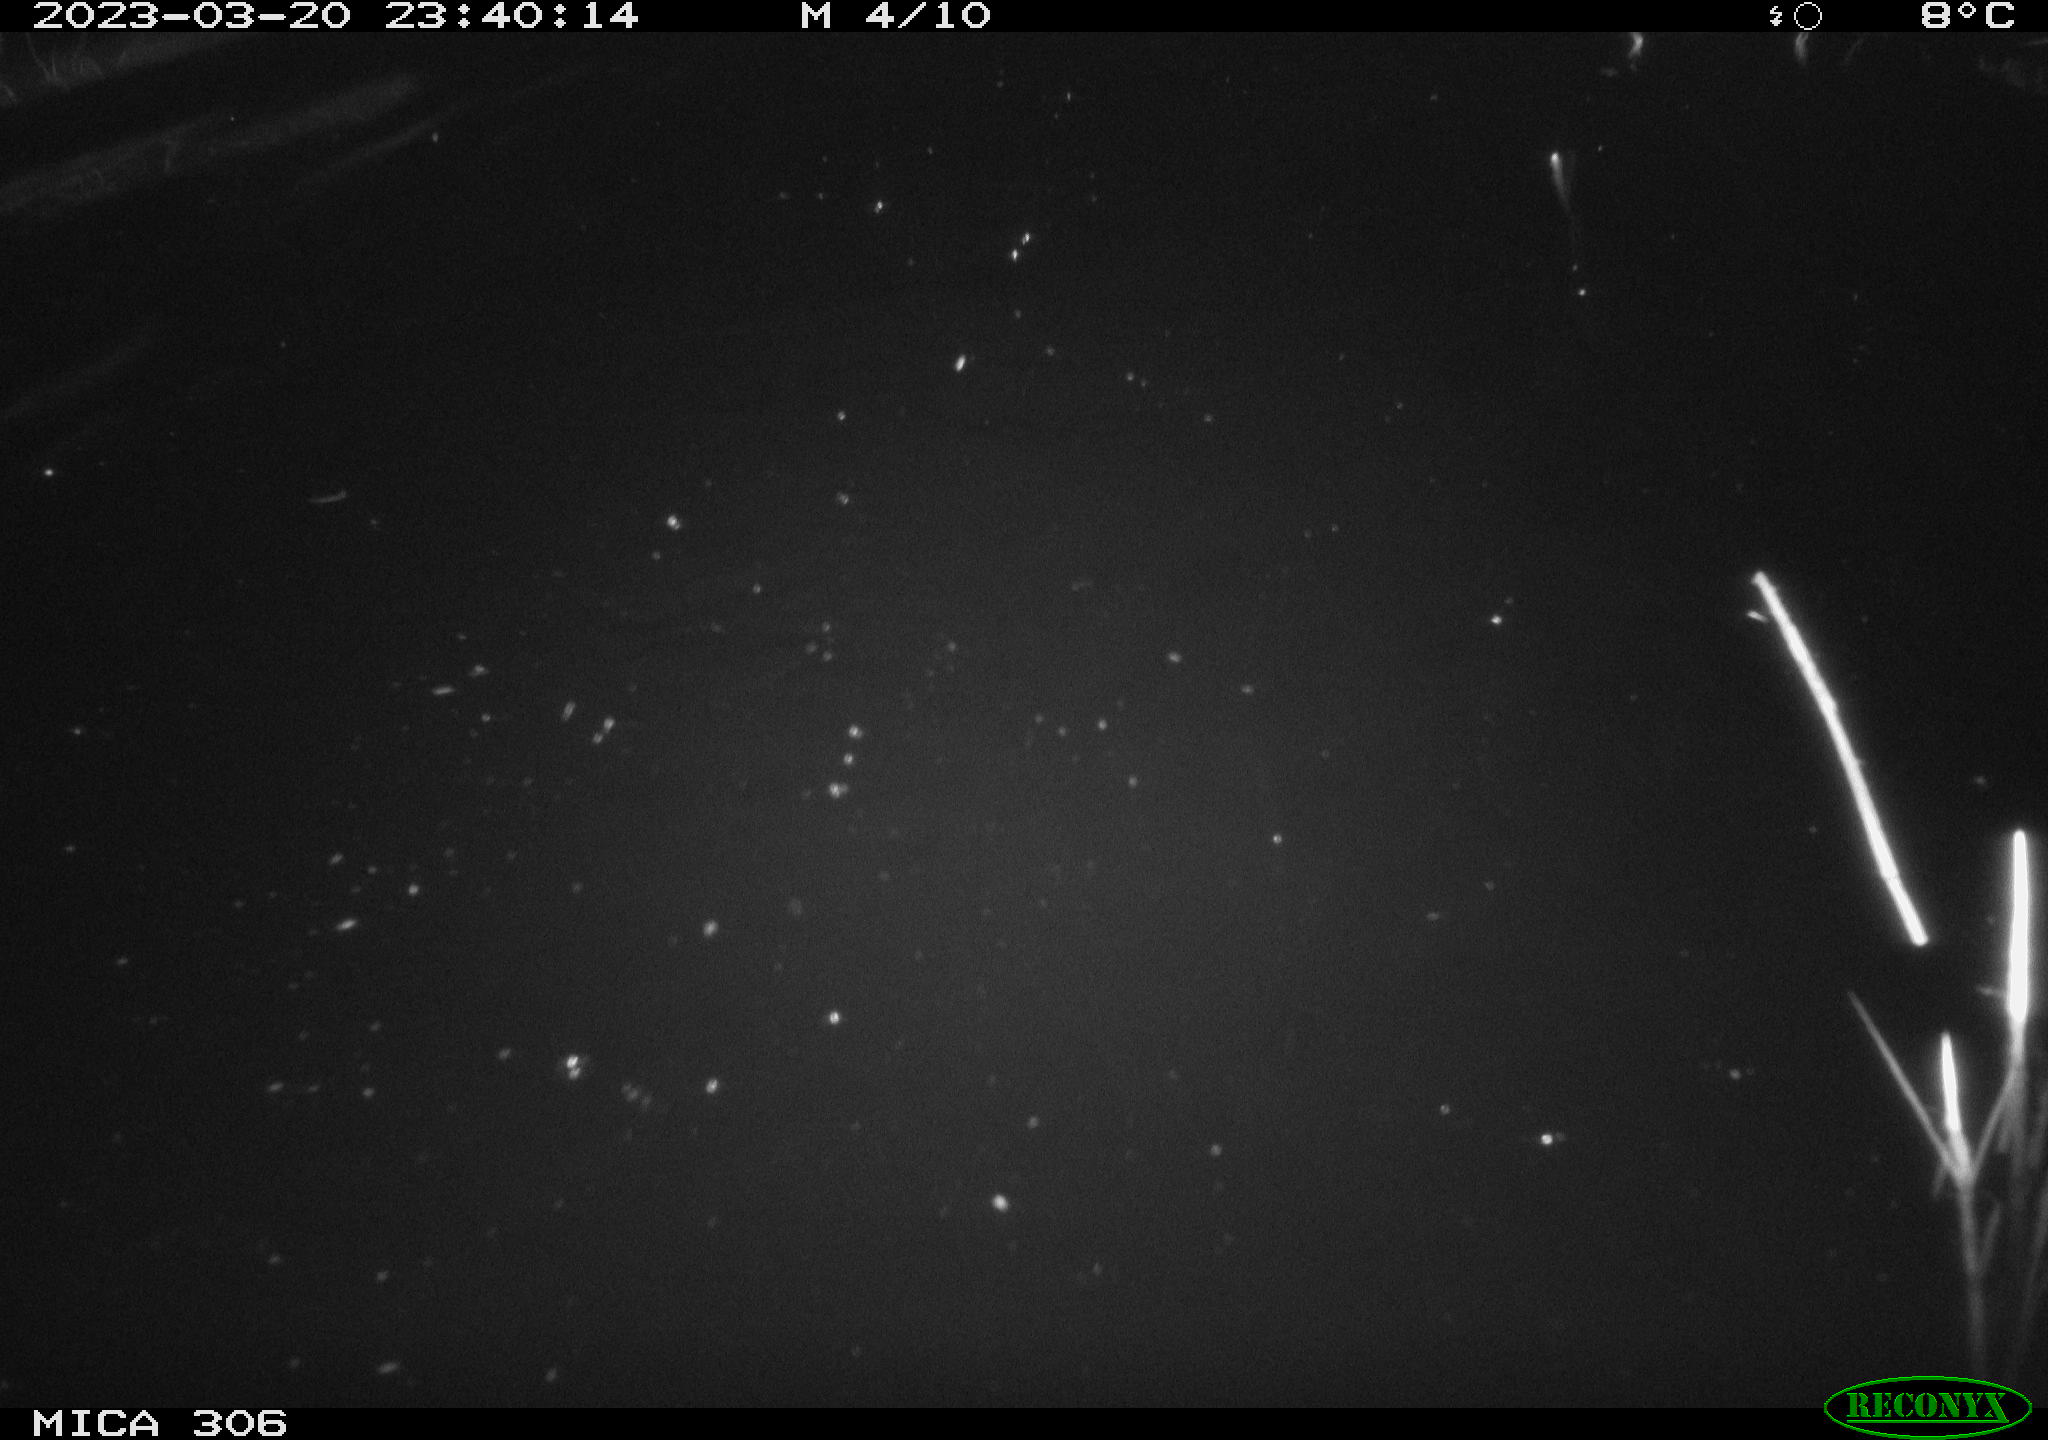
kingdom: Animalia
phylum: Chordata
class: Mammalia
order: Rodentia
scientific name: Rodentia
